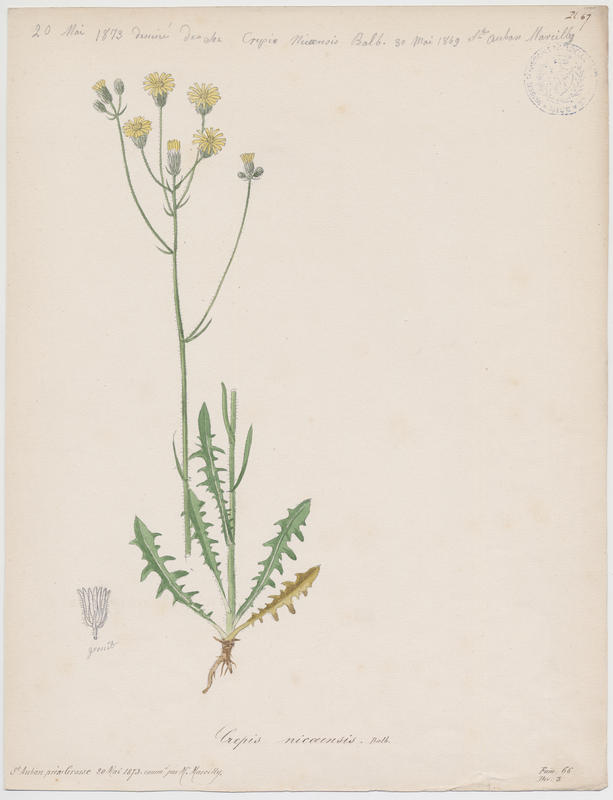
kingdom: Plantae
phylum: Tracheophyta
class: Magnoliopsida
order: Asterales
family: Asteraceae
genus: Crepis
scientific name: Crepis nicaeensis
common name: Turkish hawksbeard
